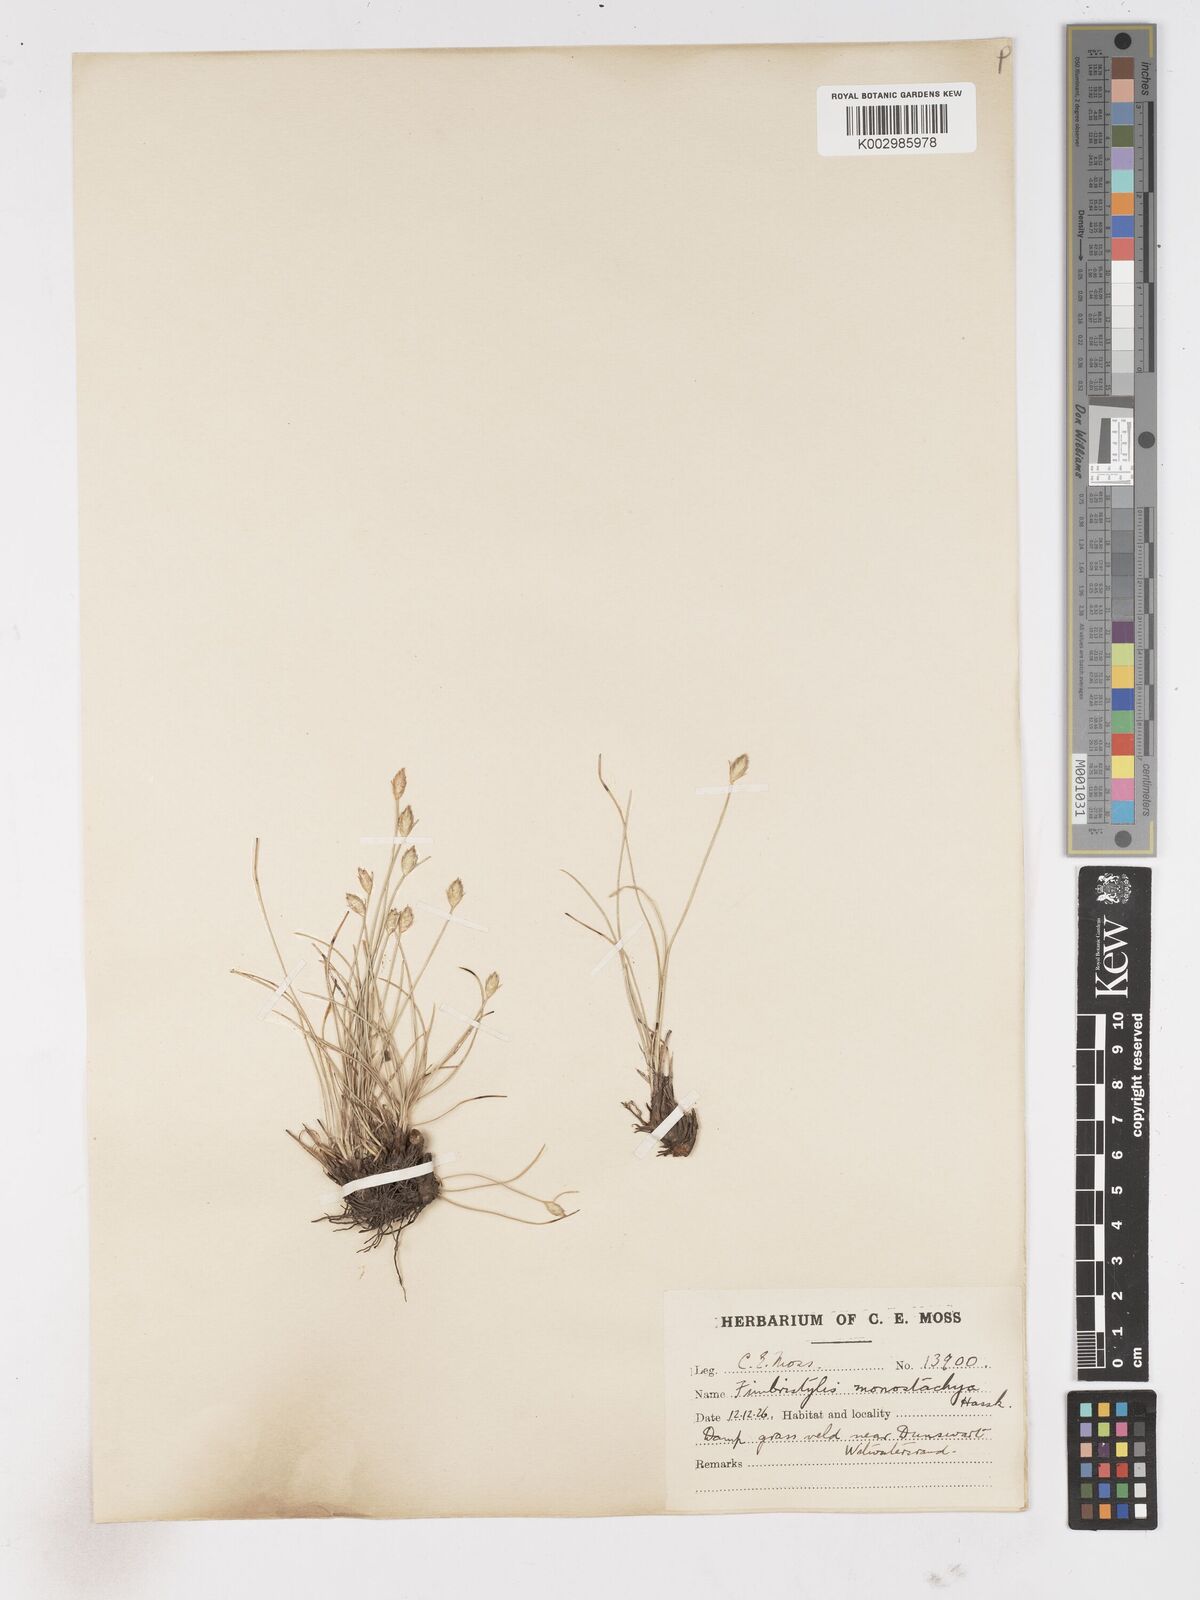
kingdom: Plantae
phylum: Tracheophyta
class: Liliopsida
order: Poales
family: Cyperaceae
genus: Abildgaardia
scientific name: Abildgaardia ovata
